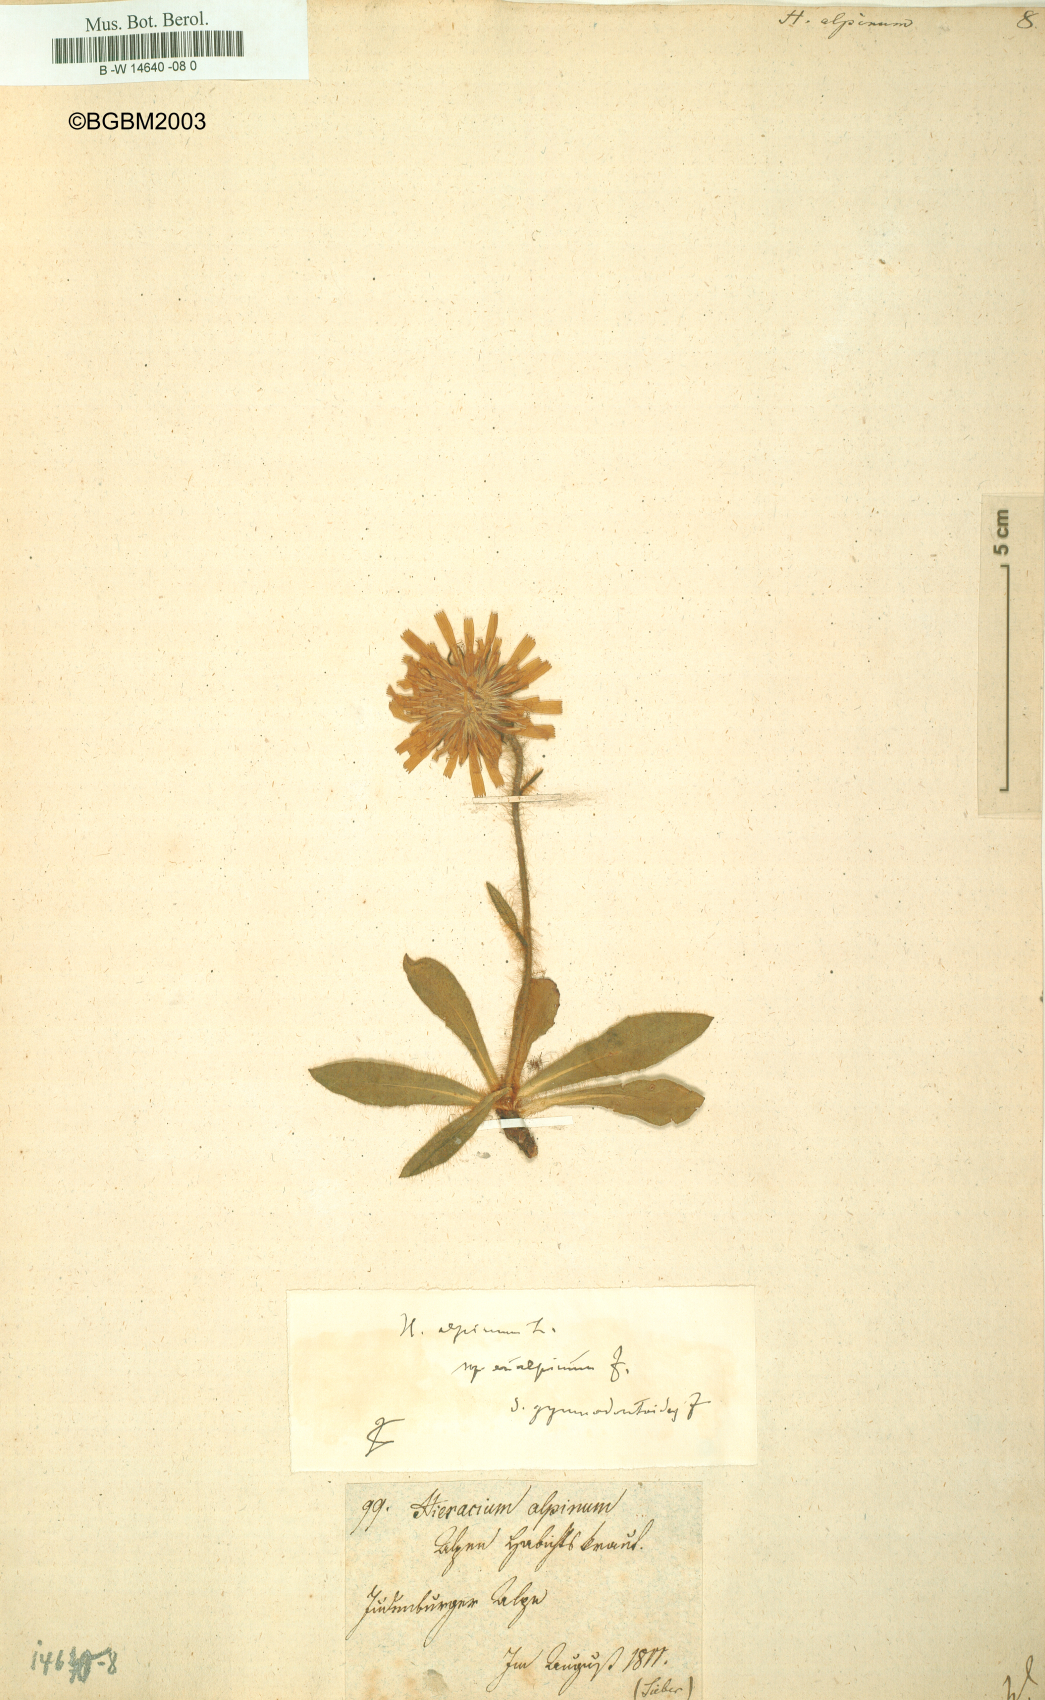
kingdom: Plantae
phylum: Tracheophyta
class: Magnoliopsida
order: Asterales
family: Asteraceae
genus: Hieracium
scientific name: Hieracium alpinum
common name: Alpine hawkweed
